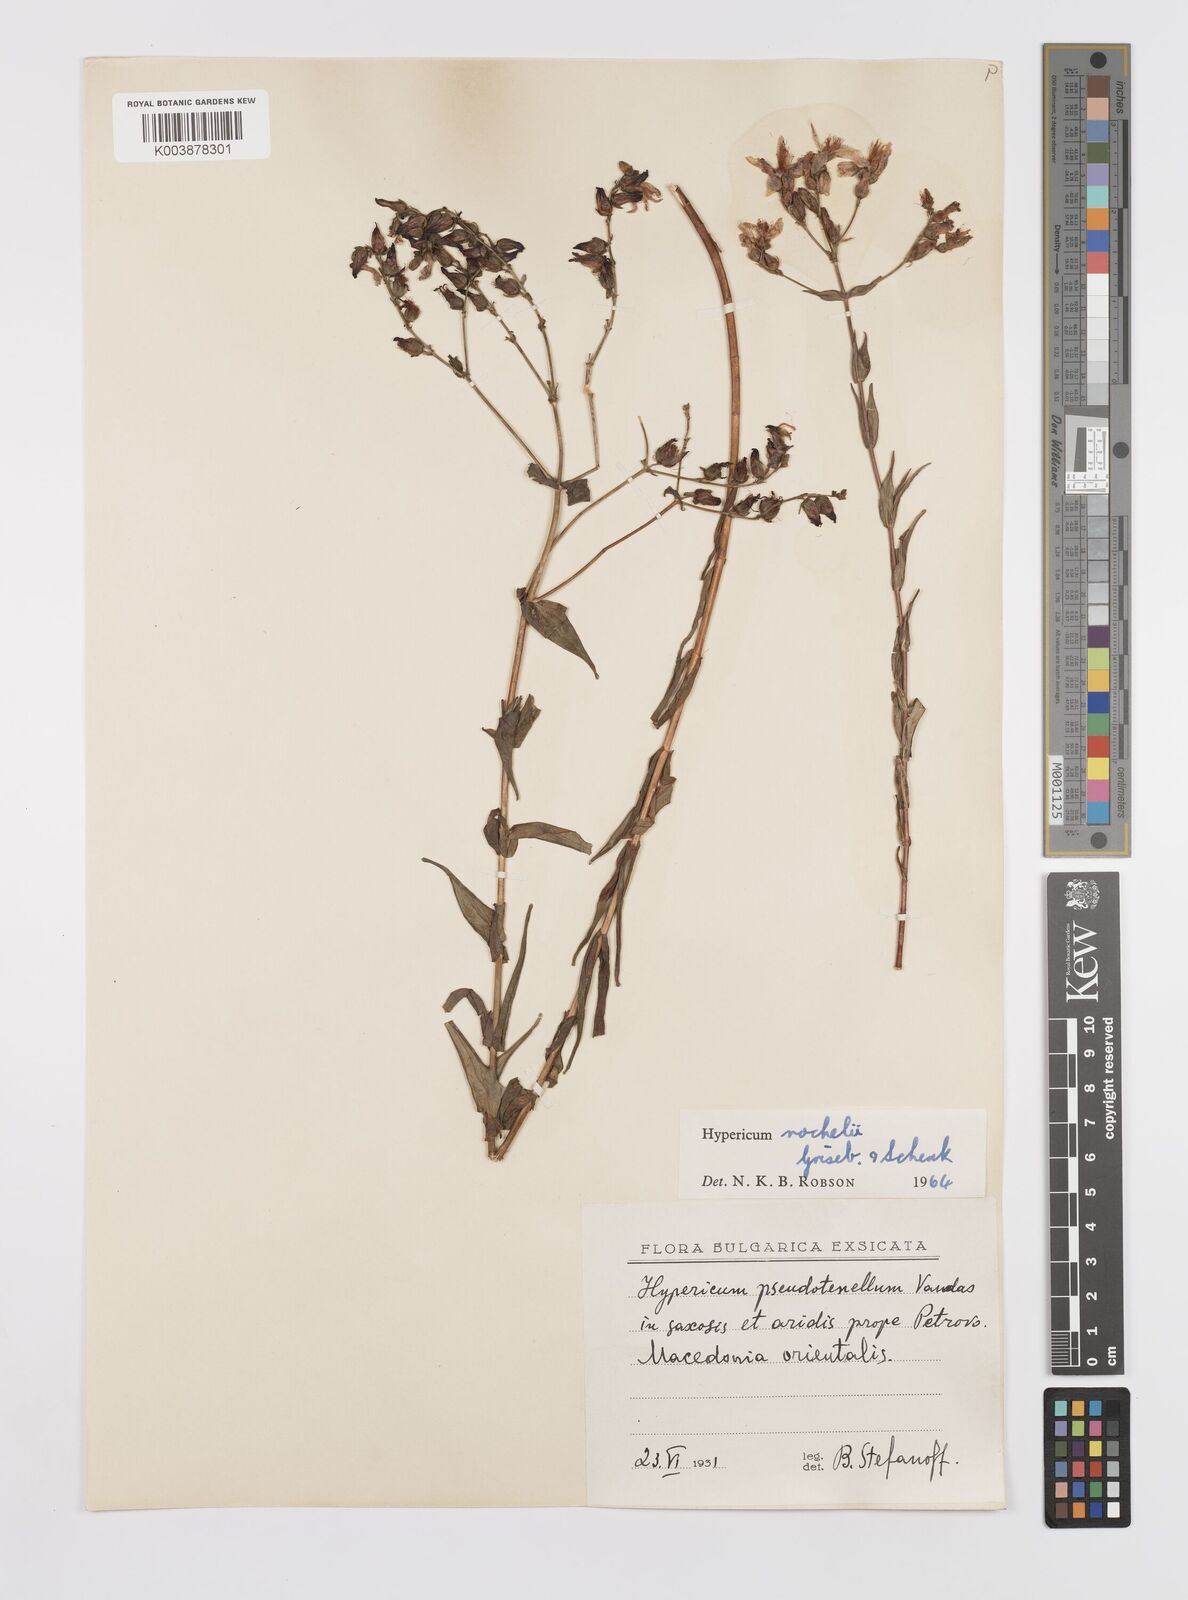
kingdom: Plantae
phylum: Tracheophyta
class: Magnoliopsida
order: Malpighiales
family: Hypericaceae
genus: Hypericum
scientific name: Hypericum rochelii
